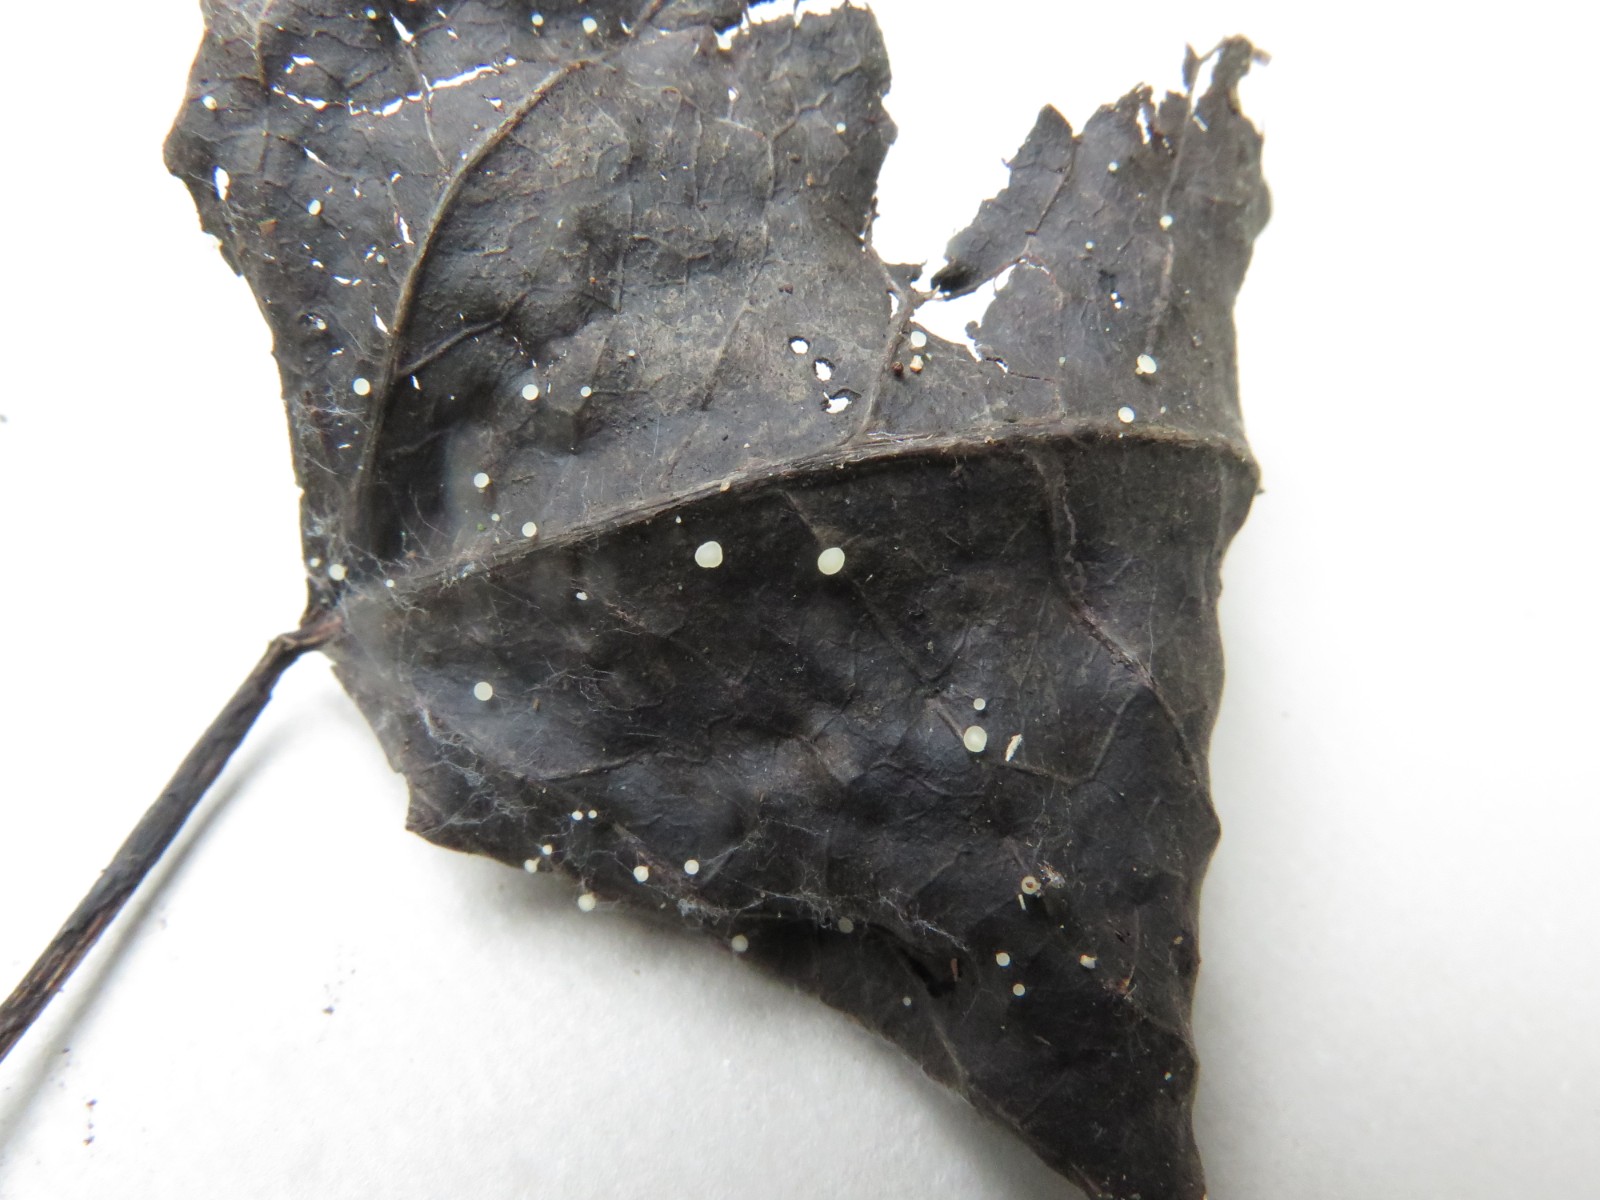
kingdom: Fungi
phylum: Ascomycota
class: Leotiomycetes
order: Helotiales
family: Helotiaceae
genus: Hymenoscyphus
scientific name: Hymenoscyphus caudatus
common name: blad-stilkskive
